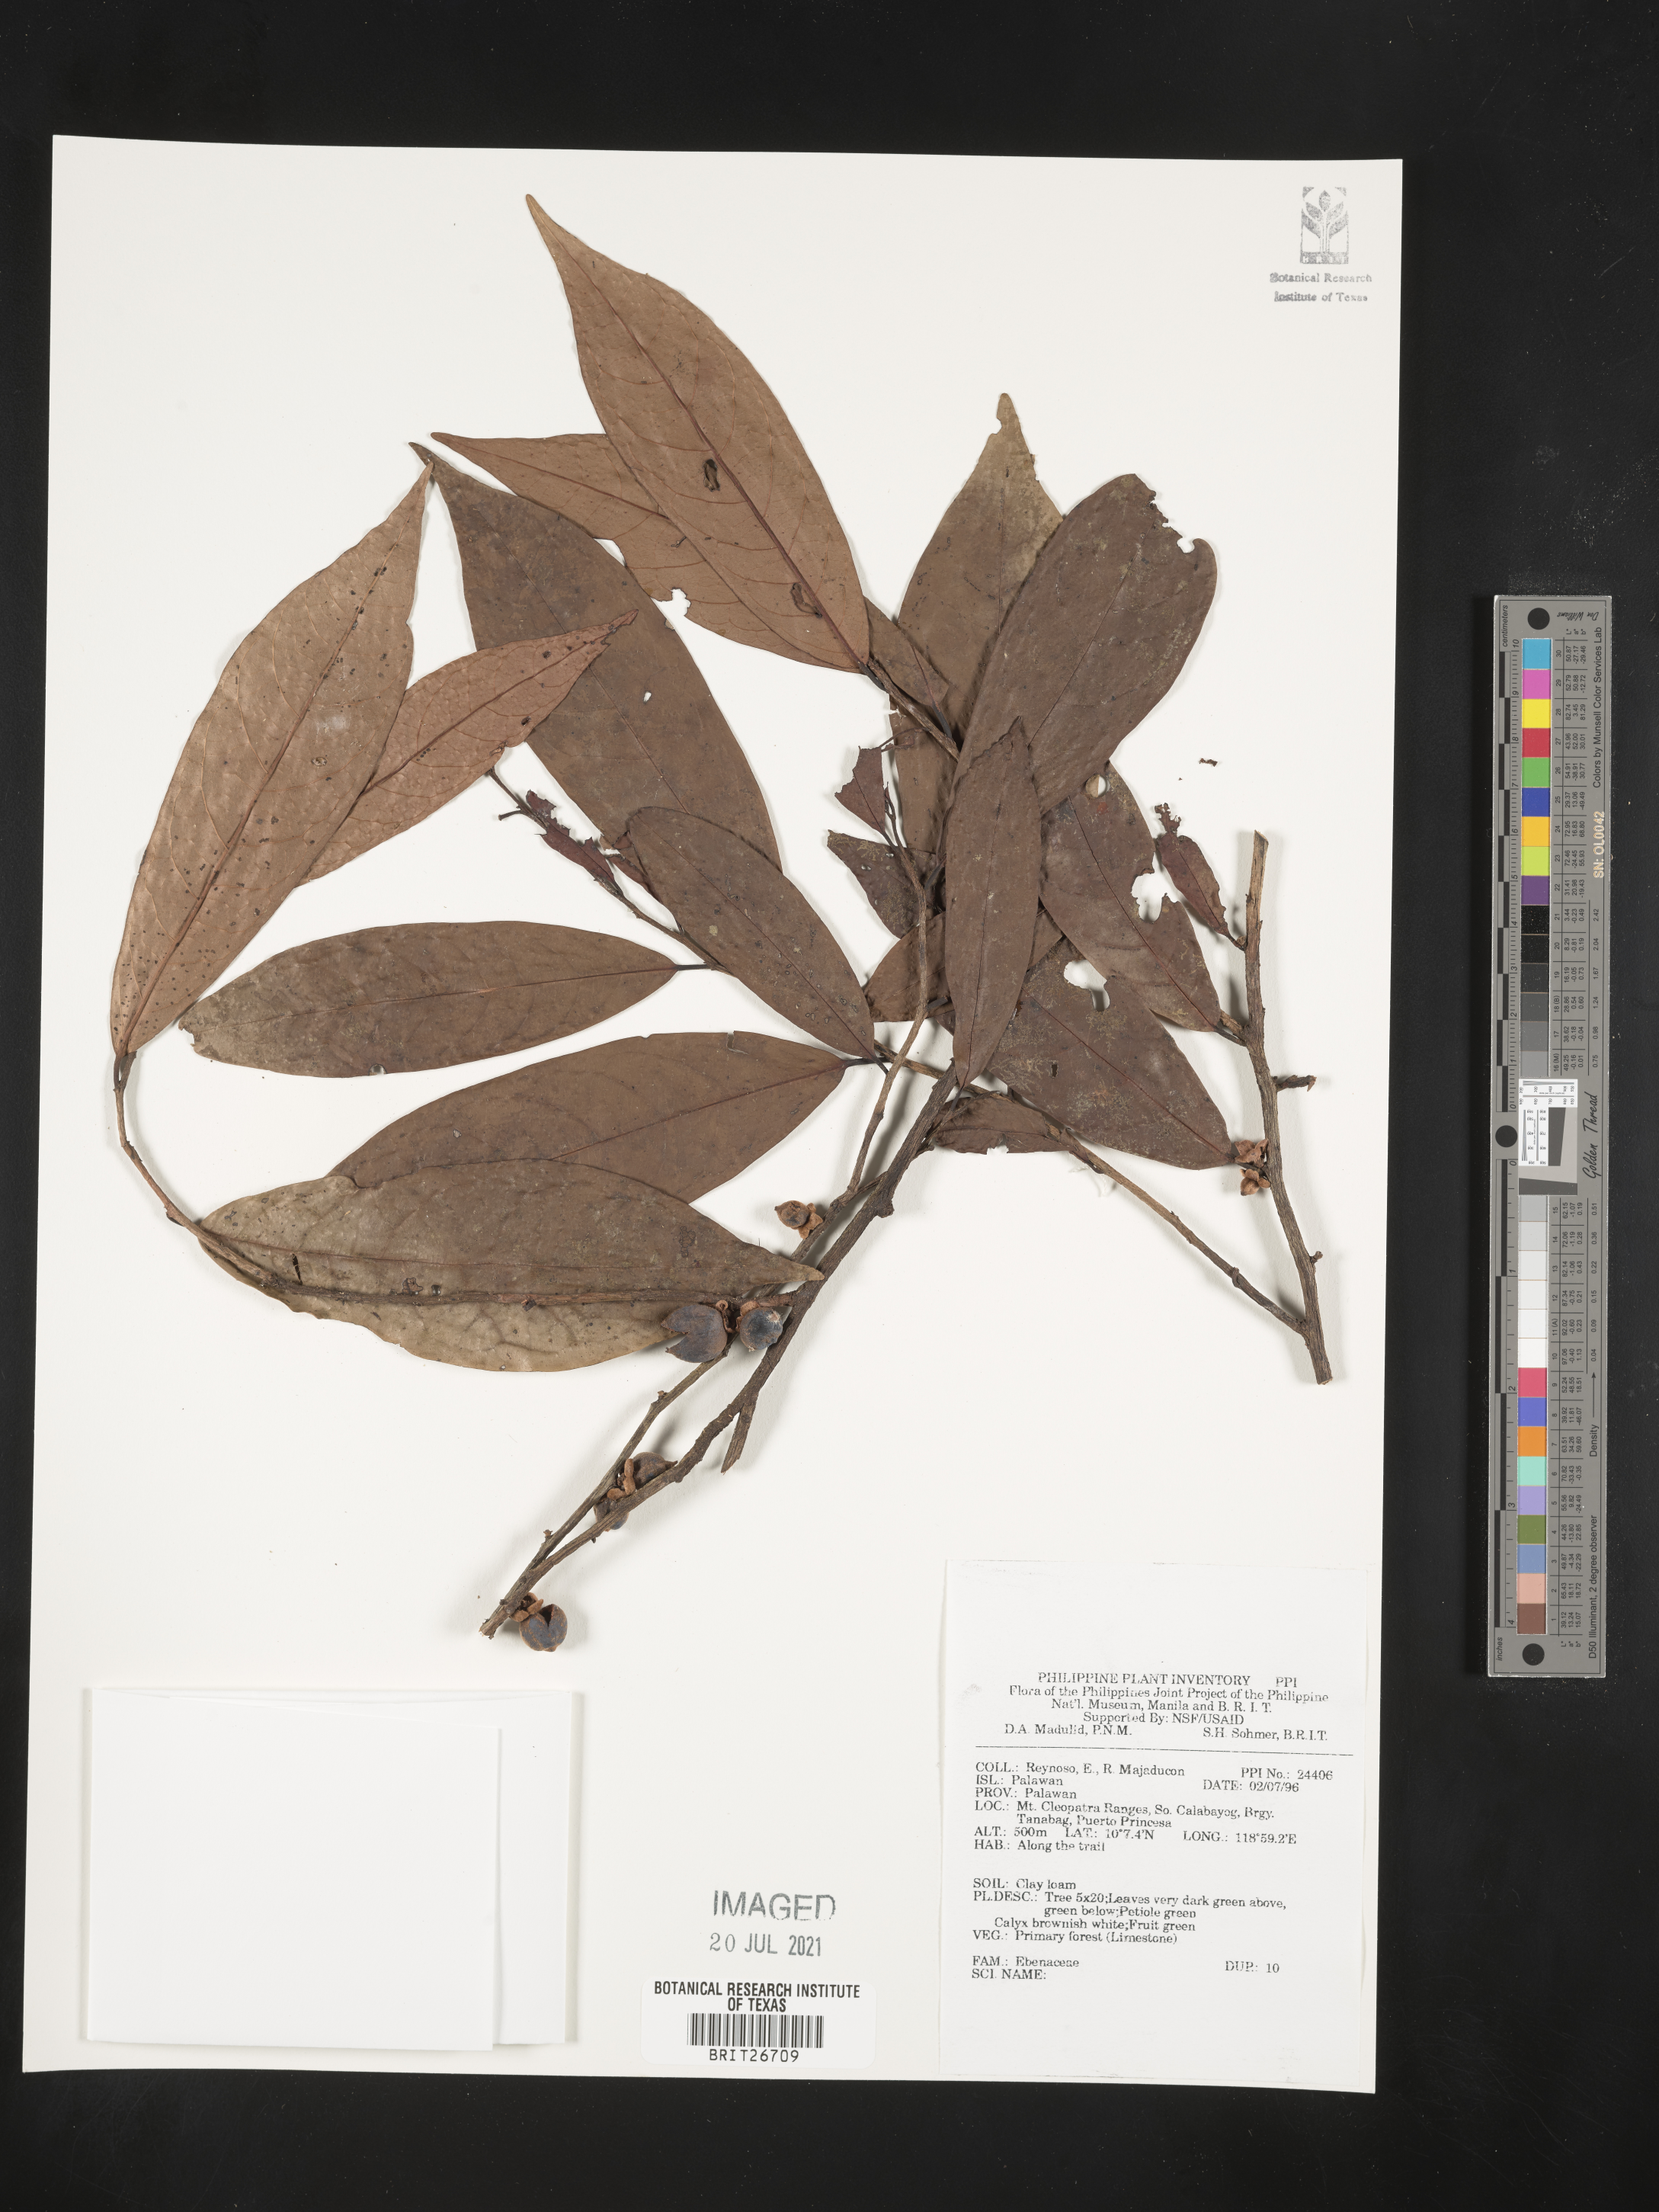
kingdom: Plantae
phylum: Tracheophyta
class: Magnoliopsida
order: Ericales
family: Ebenaceae
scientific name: Ebenaceae
